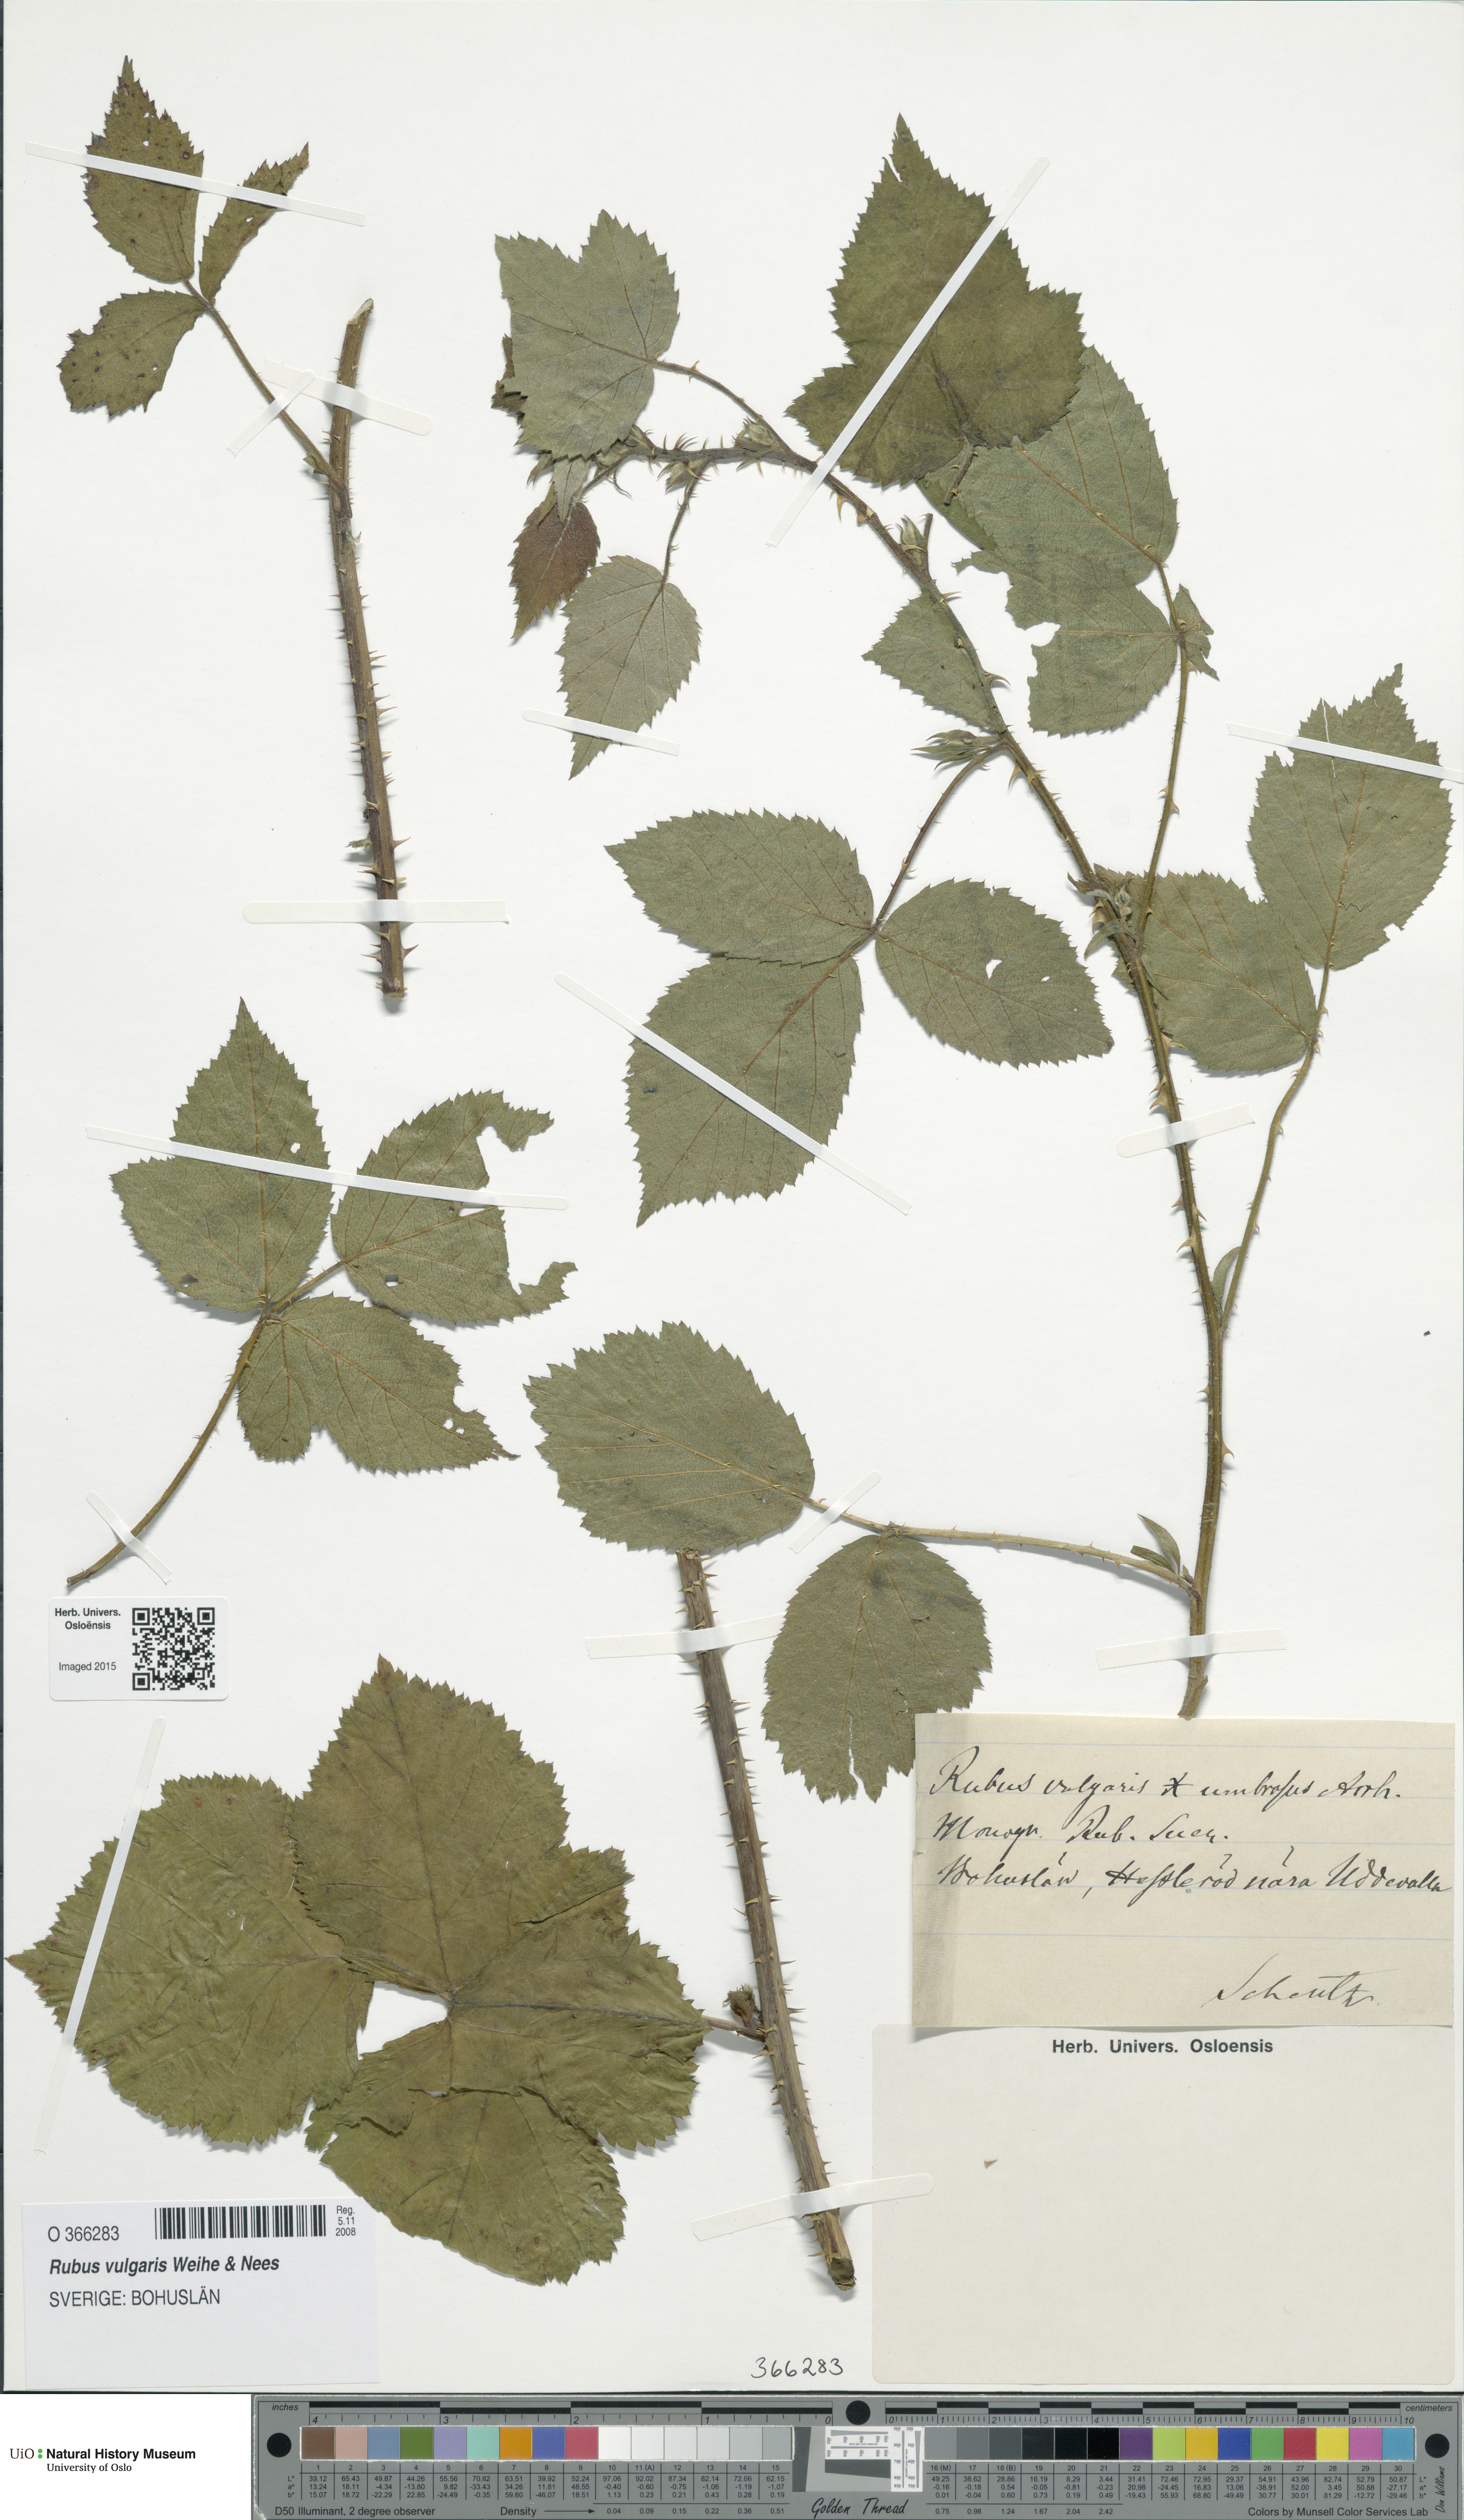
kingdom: Plantae
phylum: Tracheophyta
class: Magnoliopsida
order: Rosales
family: Rosaceae
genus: Rubus
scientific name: Rubus aschoffii
